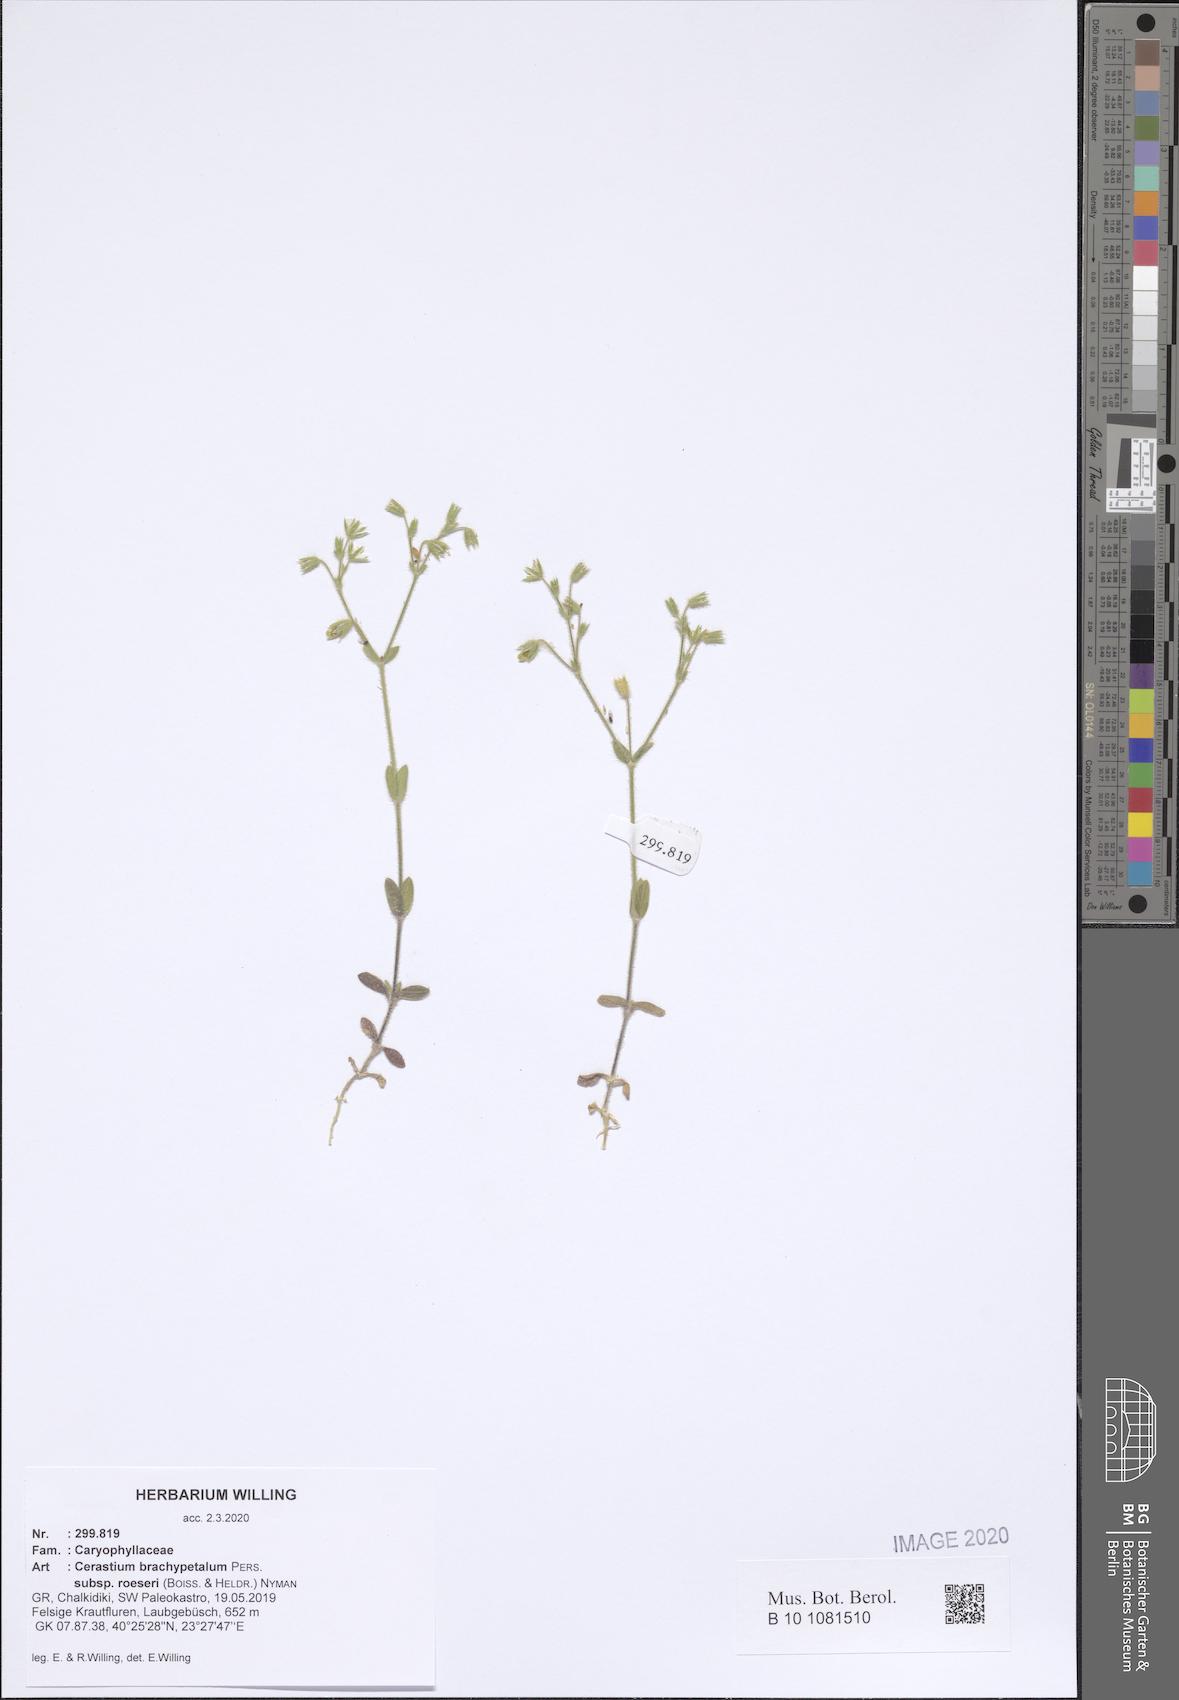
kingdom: Plantae
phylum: Tracheophyta
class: Magnoliopsida
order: Caryophyllales
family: Caryophyllaceae
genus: Cerastium
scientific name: Cerastium brachypetalum
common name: Grey mouse-ear
